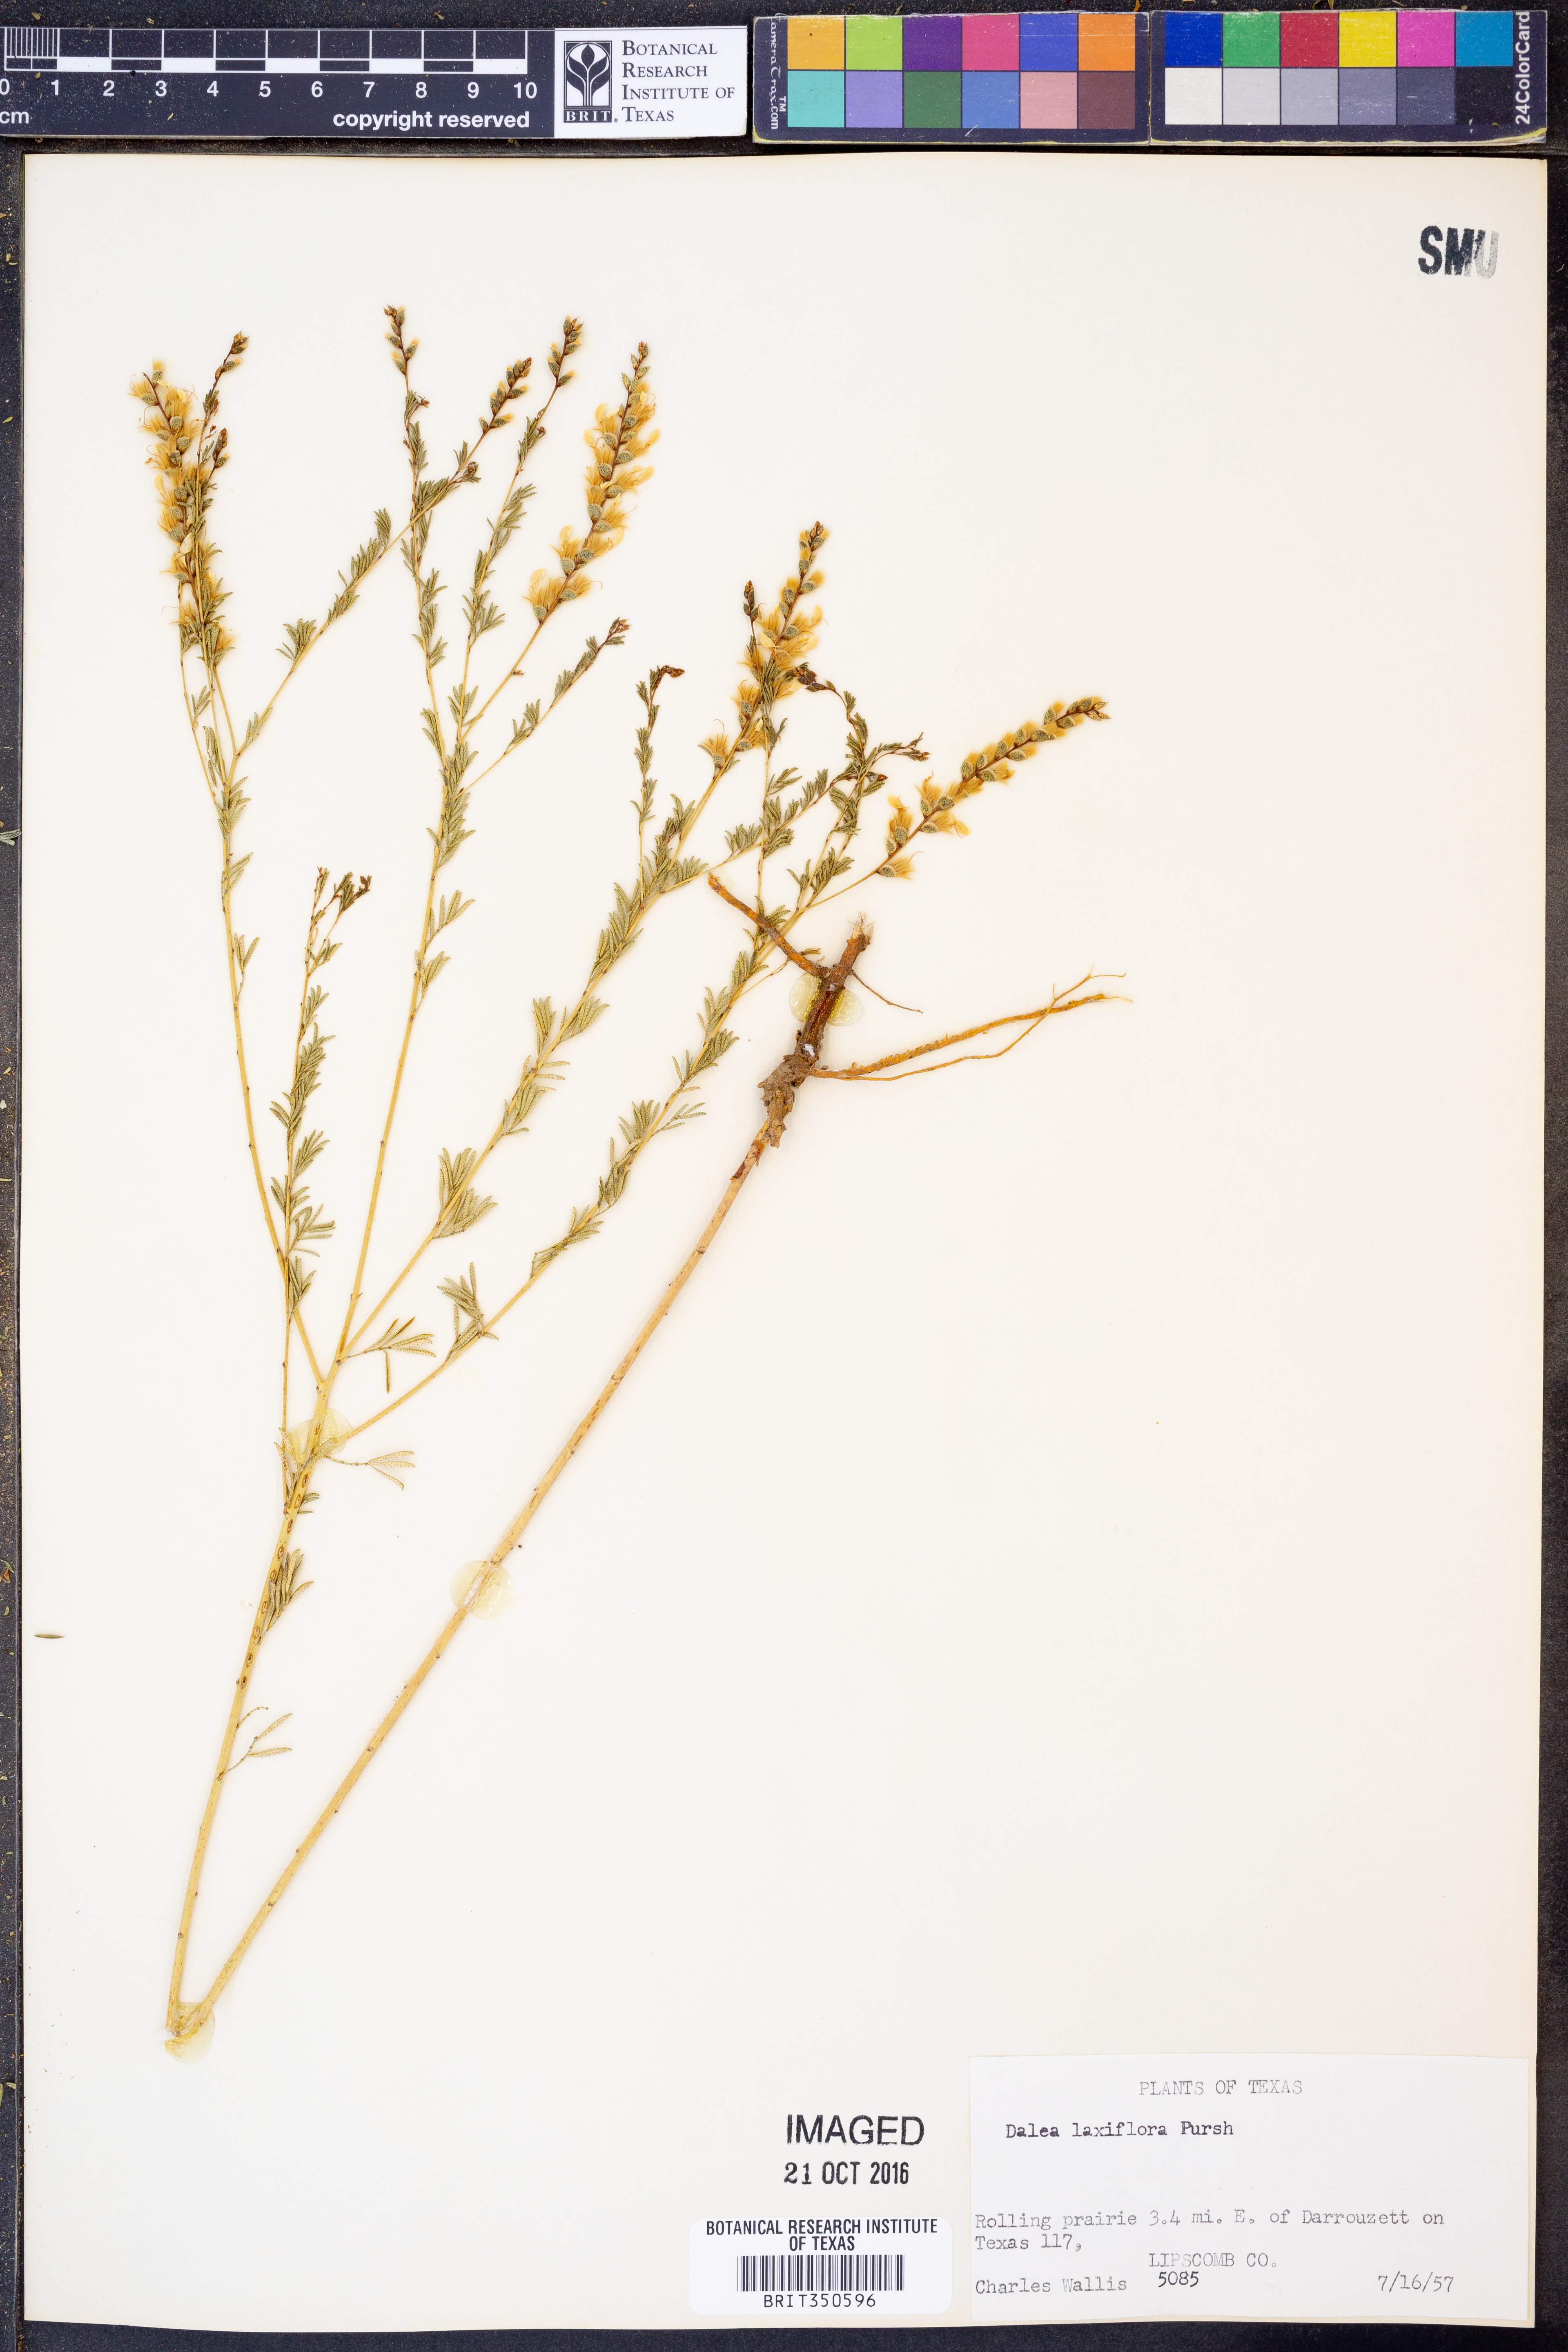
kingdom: Plantae
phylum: Tracheophyta
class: Magnoliopsida
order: Fabales
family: Fabaceae
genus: Dalea
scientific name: Dalea hegewischiana
